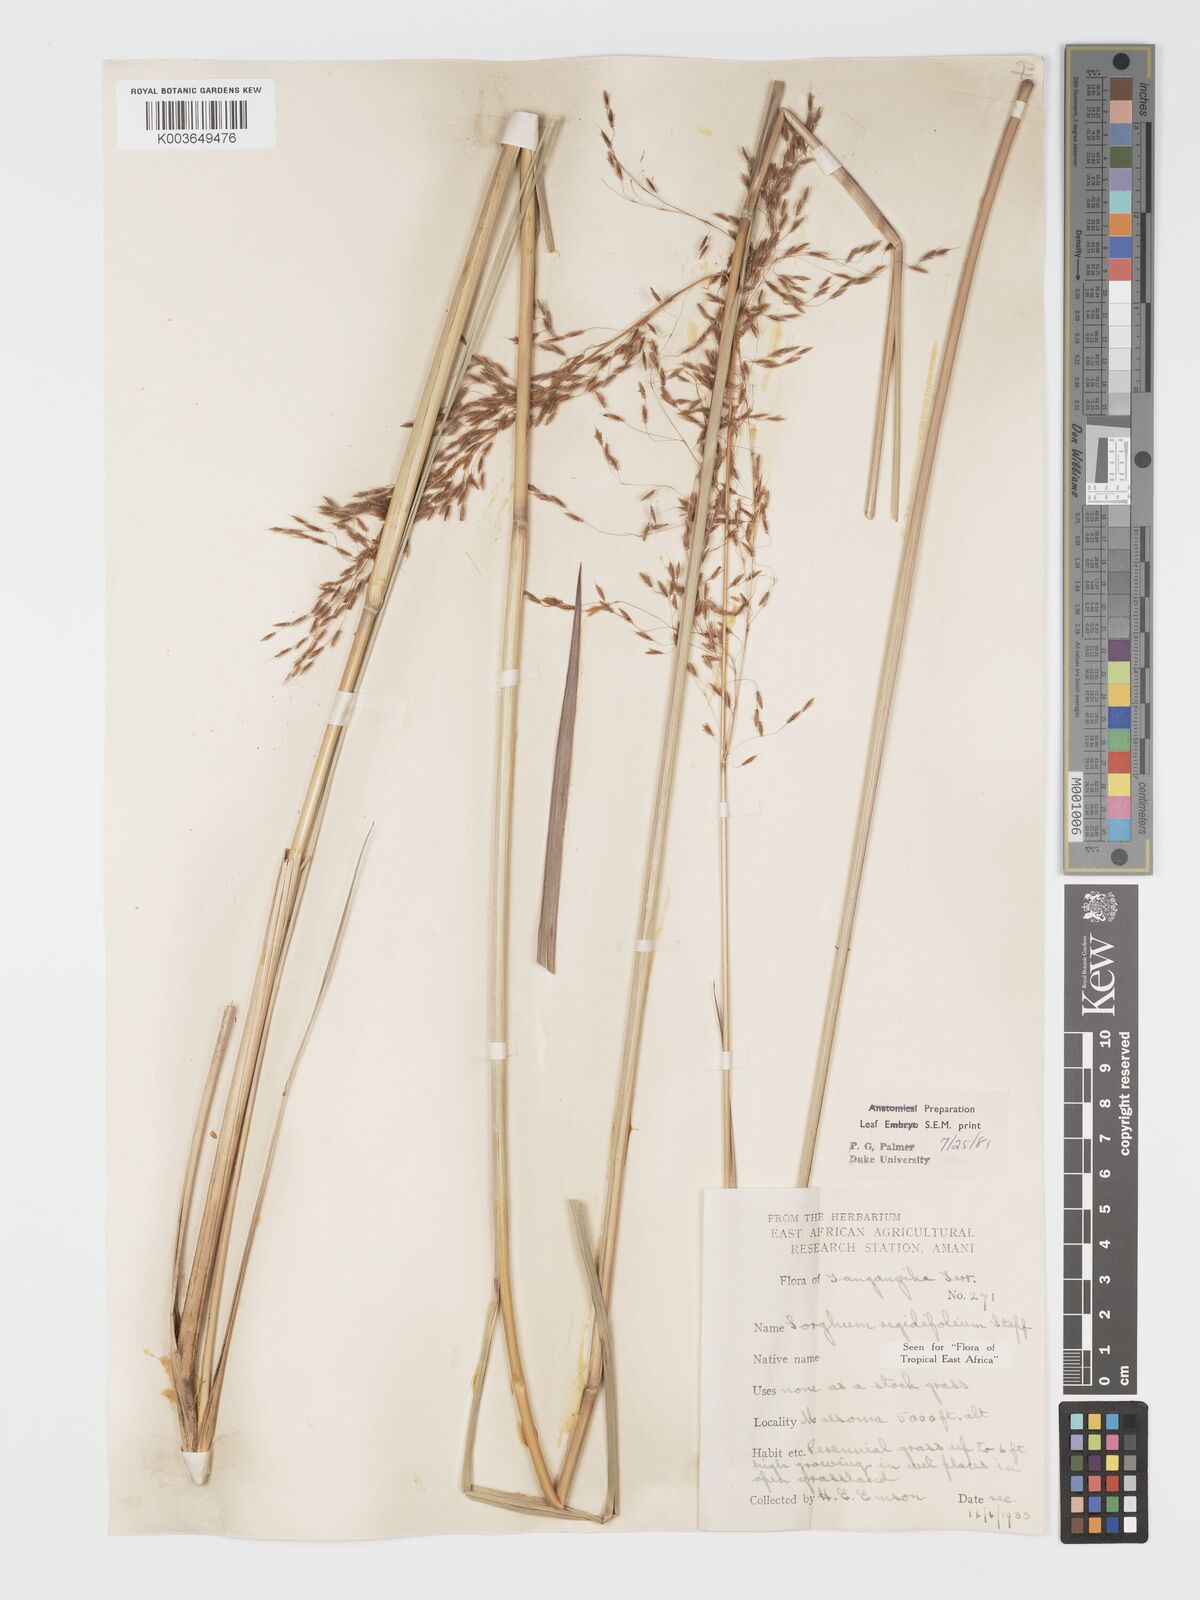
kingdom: Plantae
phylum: Tracheophyta
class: Liliopsida
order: Poales
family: Poaceae
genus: Sorghastrum
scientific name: Sorghastrum stipoides
